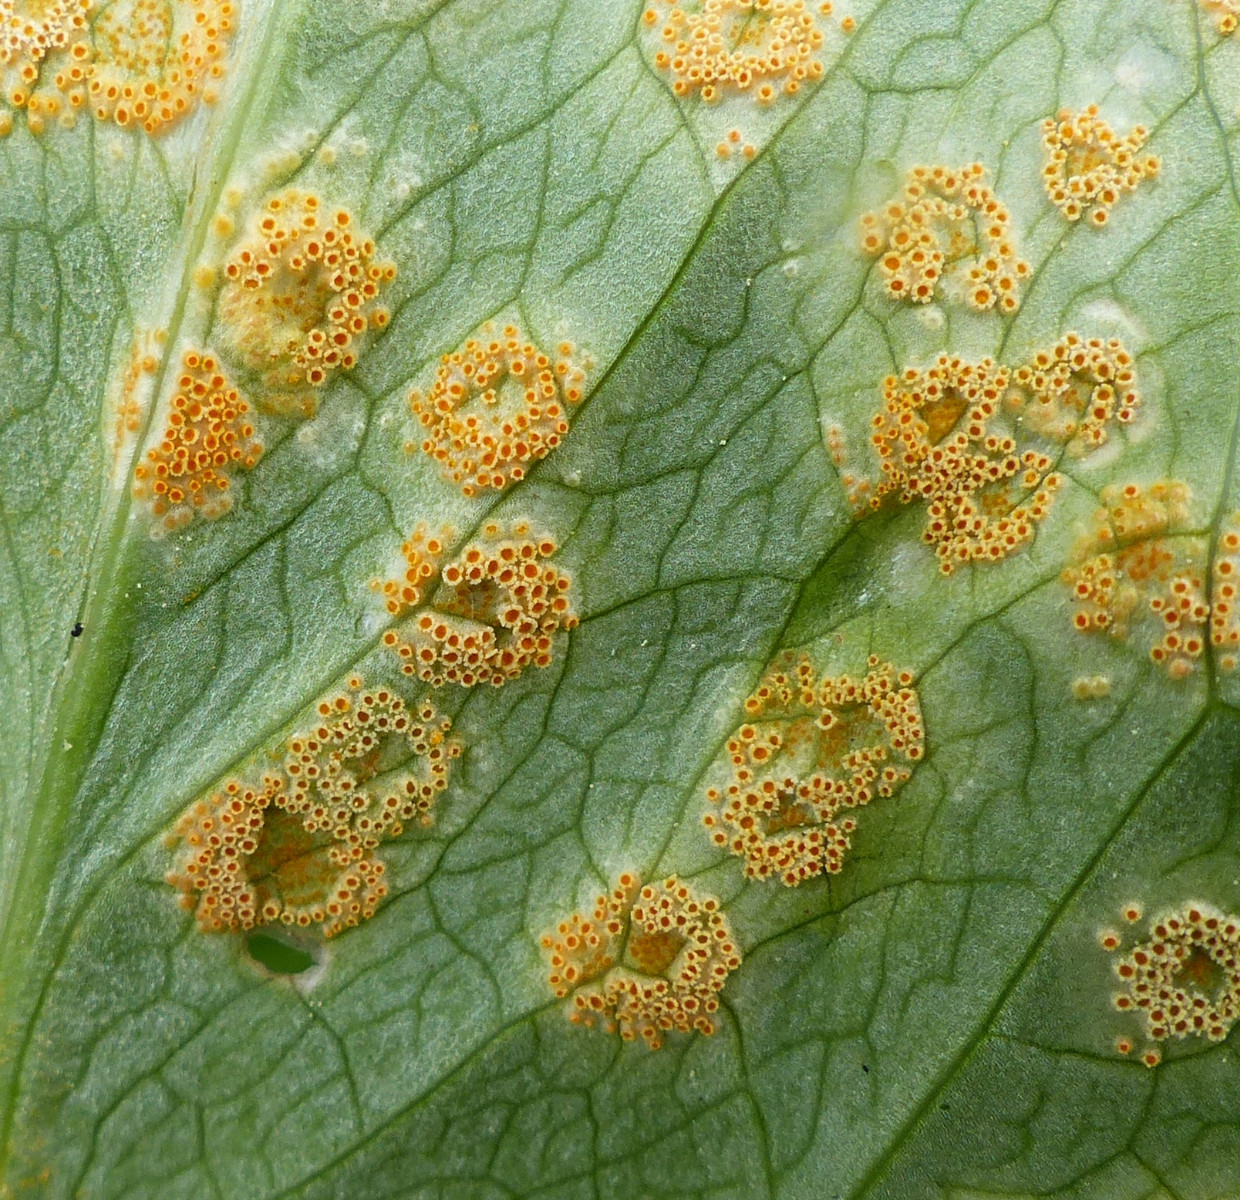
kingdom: Fungi
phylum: Basidiomycota
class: Pucciniomycetes
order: Pucciniales
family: Pucciniaceae
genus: Puccinia
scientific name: Puccinia sessilis
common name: Arum rust
